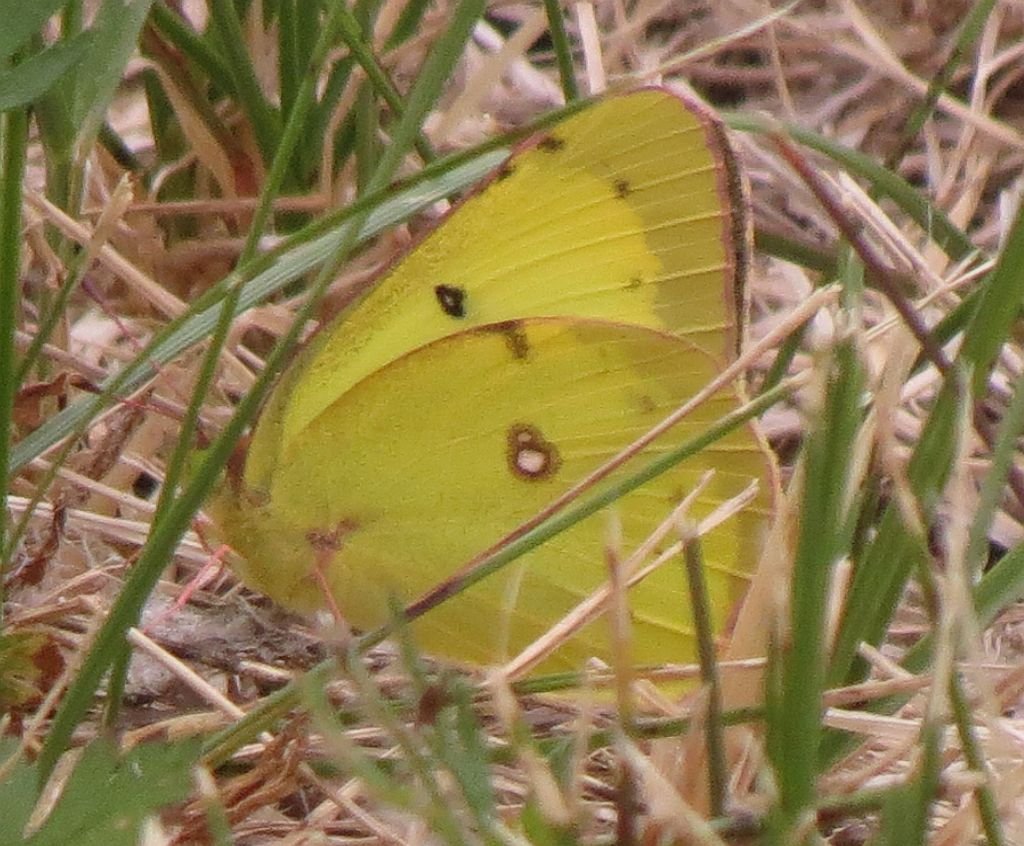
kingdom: Animalia
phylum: Arthropoda
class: Insecta
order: Lepidoptera
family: Pieridae
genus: Colias
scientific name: Colias philodice
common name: Clouded Sulphur
